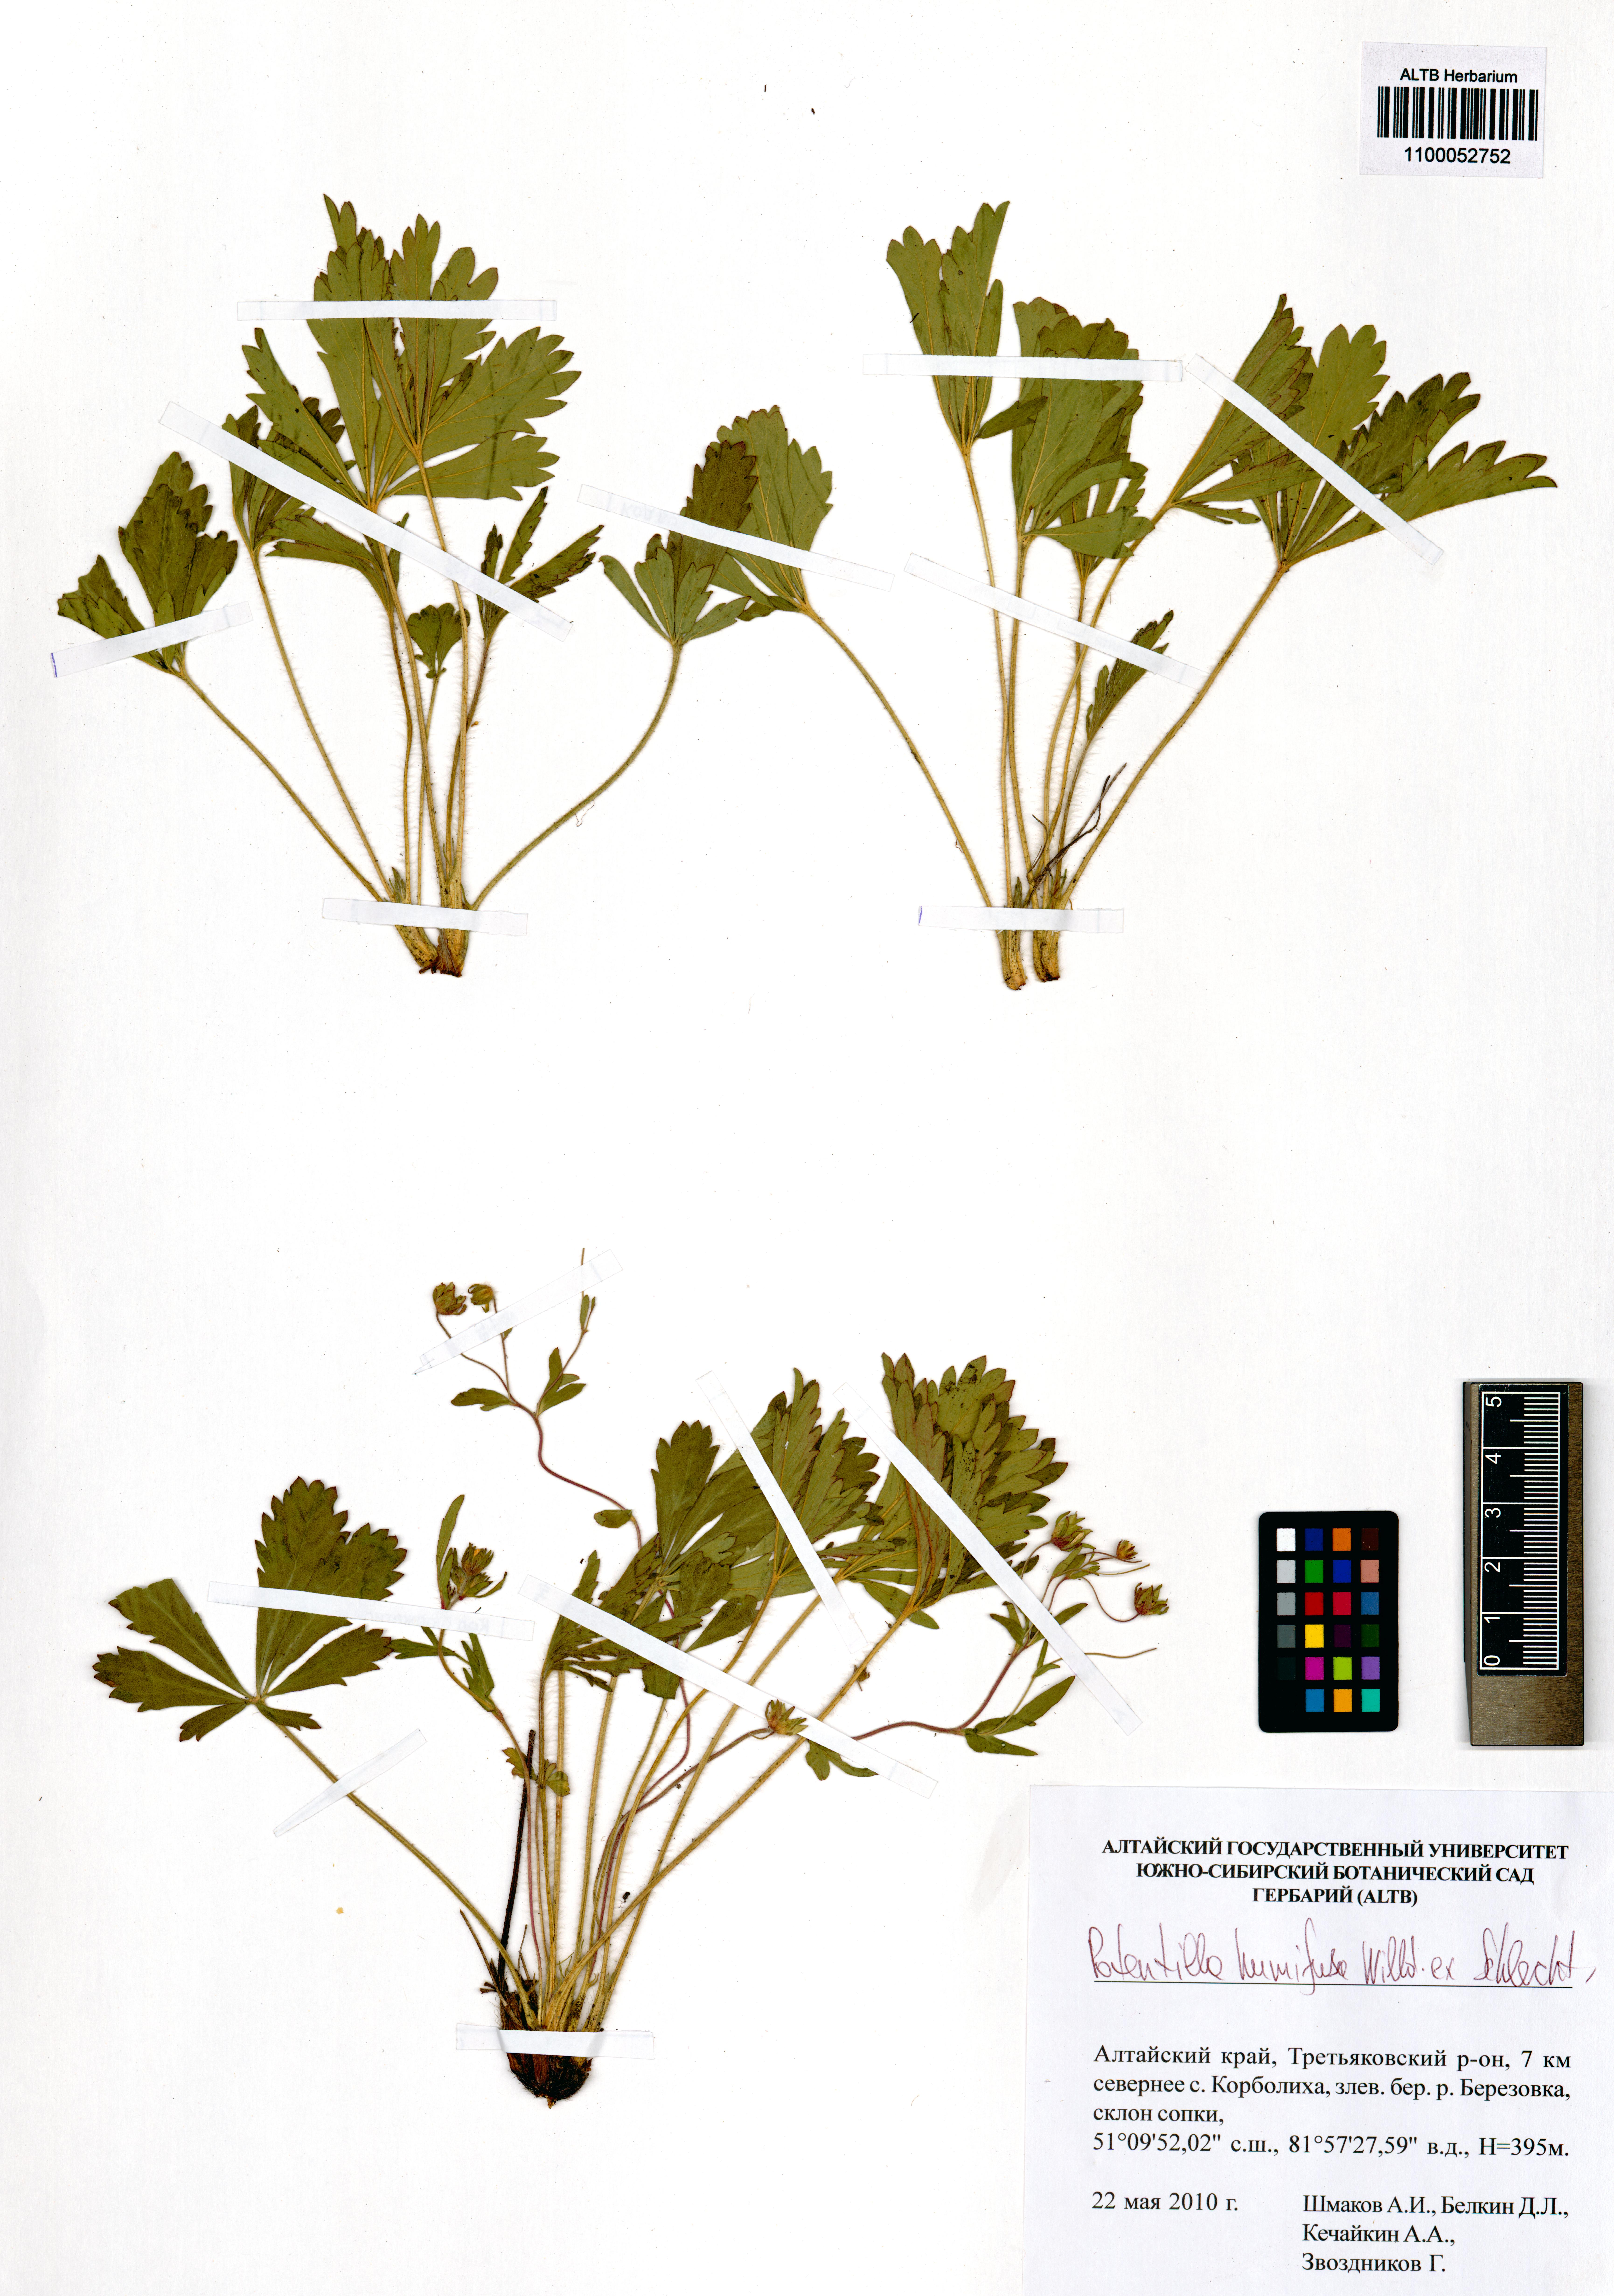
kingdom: Plantae
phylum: Tracheophyta
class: Magnoliopsida
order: Rosales
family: Rosaceae
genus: Potentilla
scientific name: Potentilla humifusa
